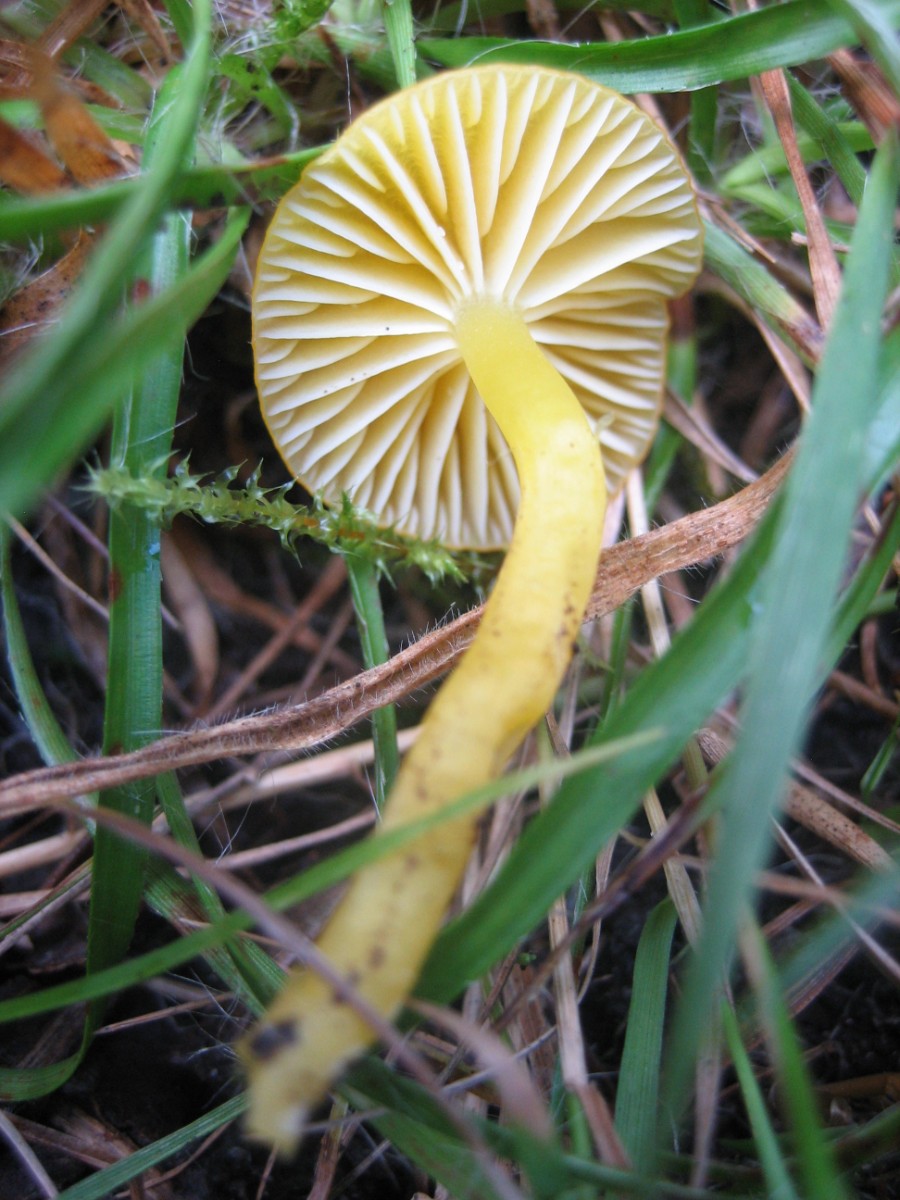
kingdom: Fungi
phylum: Basidiomycota
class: Agaricomycetes
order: Agaricales
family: Hygrophoraceae
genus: Hygrocybe
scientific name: Hygrocybe chlorophana
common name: gul vokshat
